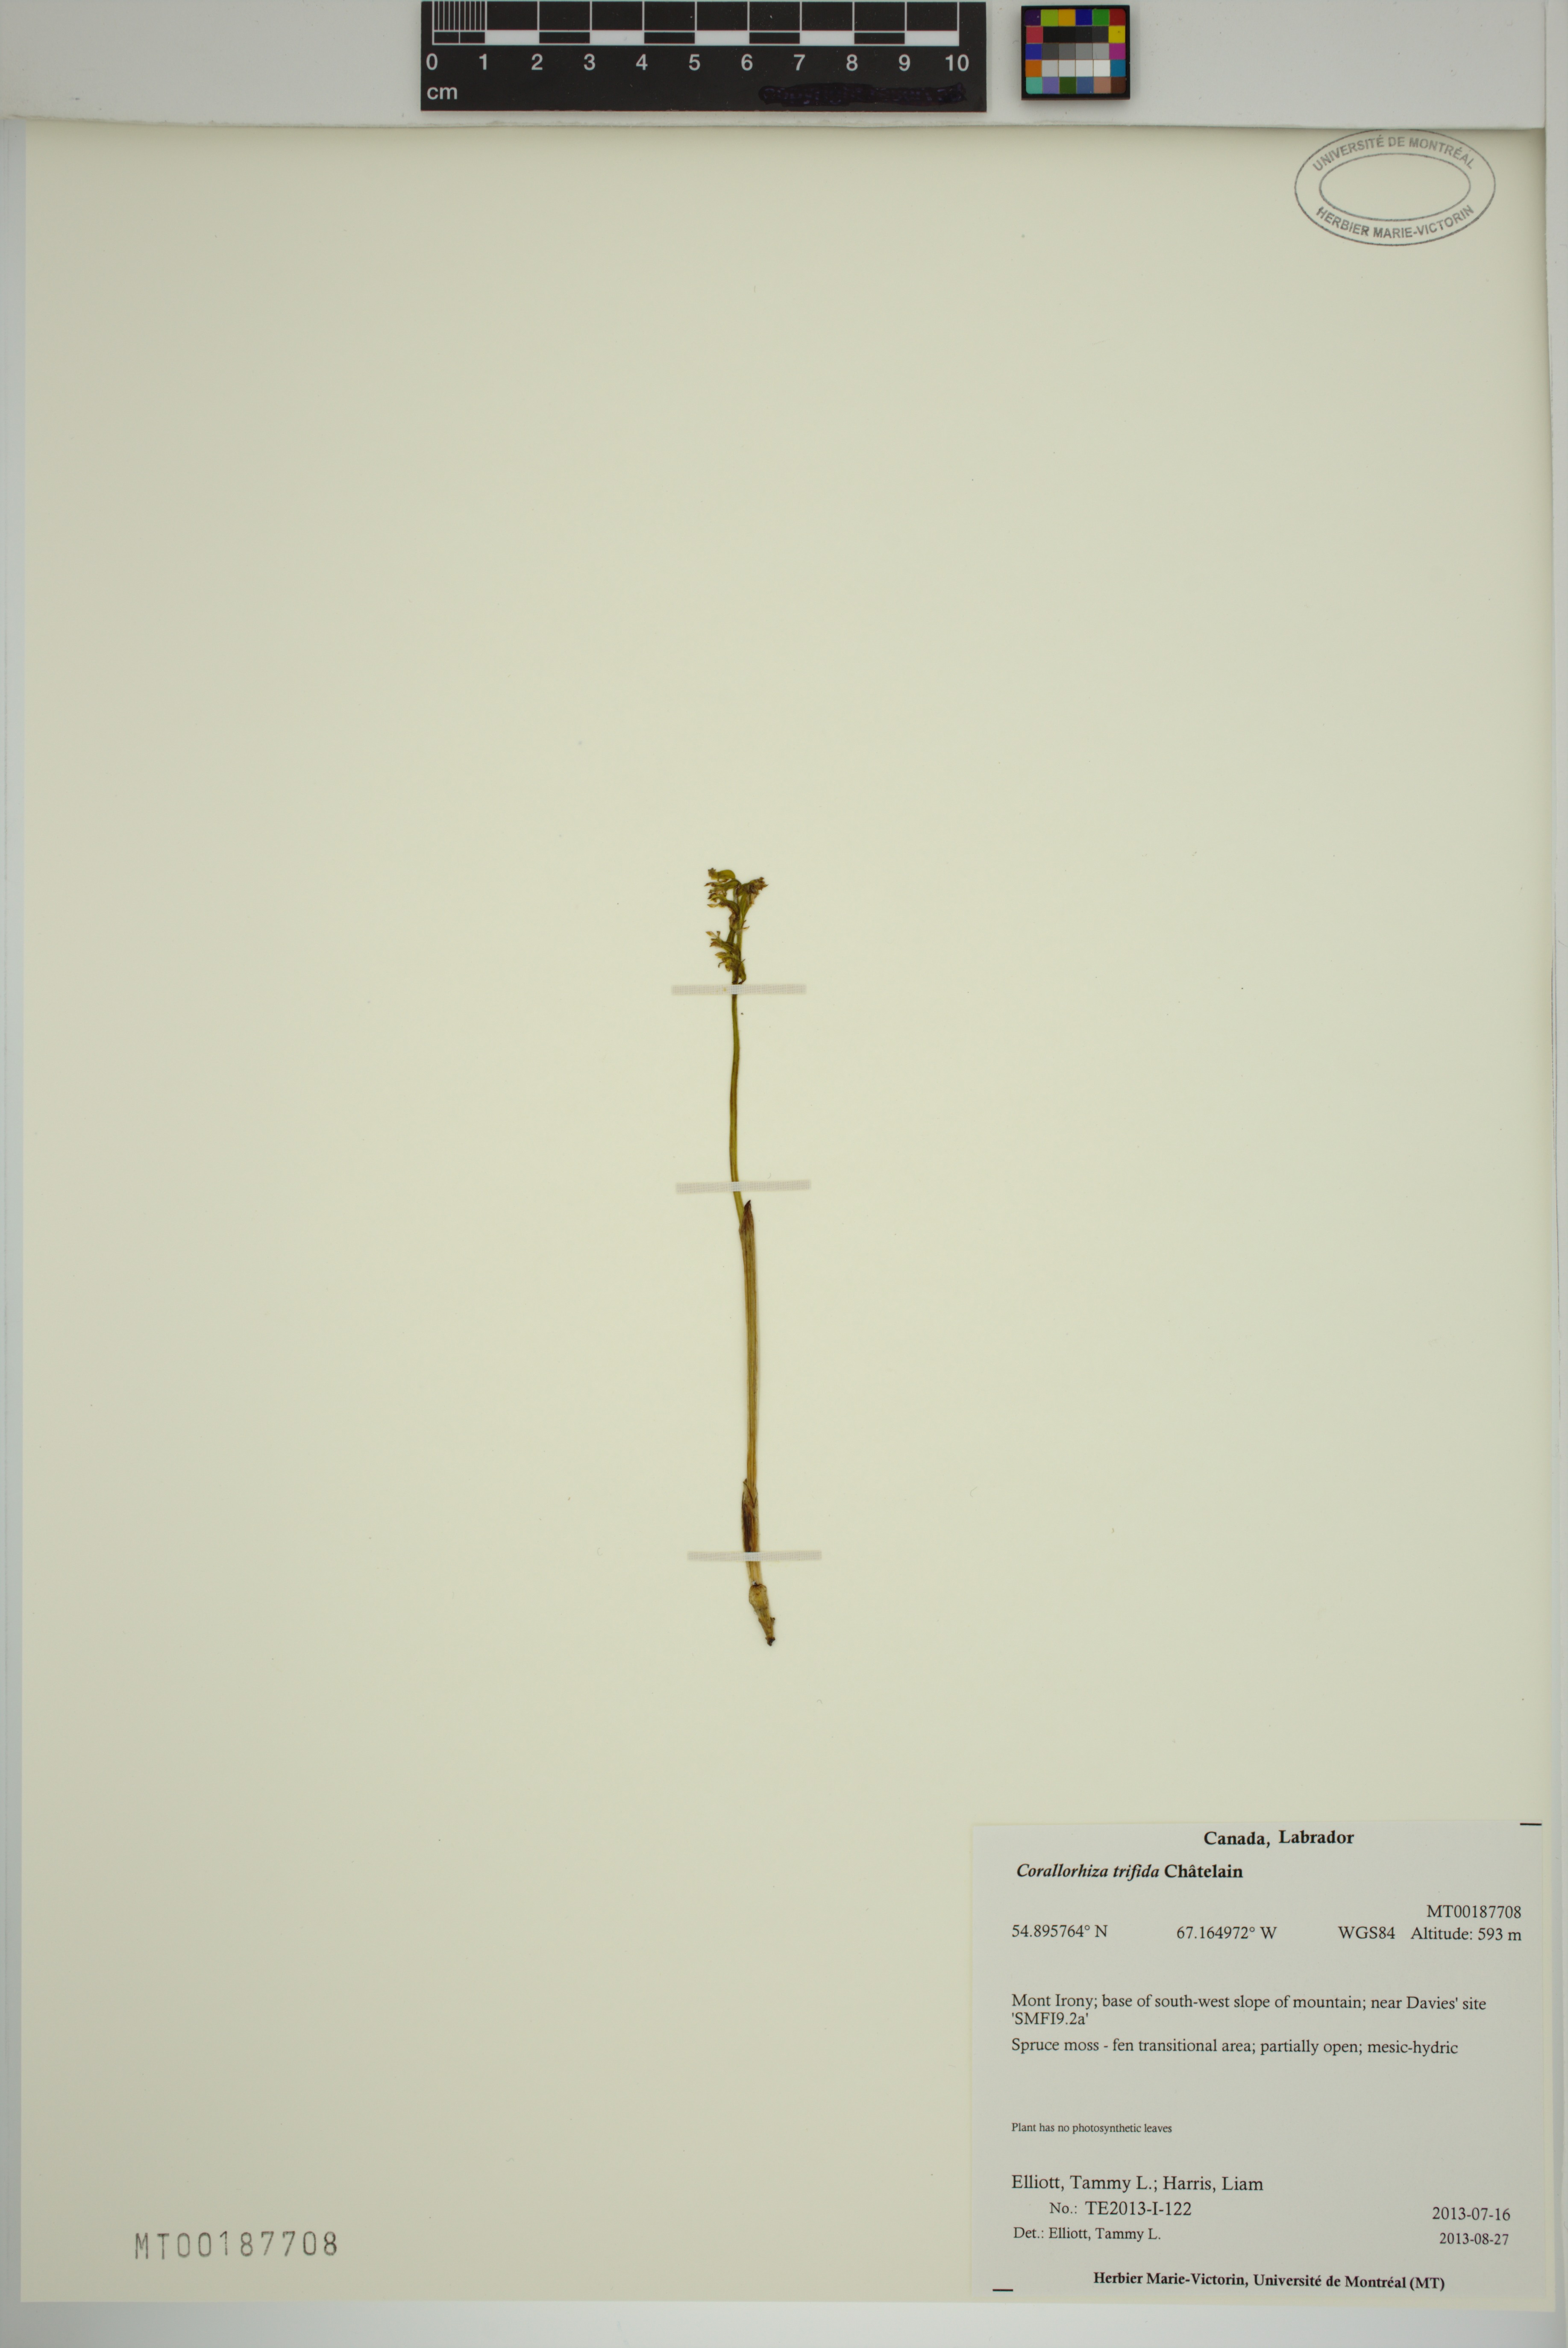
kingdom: Plantae
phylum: Tracheophyta
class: Liliopsida
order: Asparagales
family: Orchidaceae
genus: Corallorhiza
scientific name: Corallorhiza trifida
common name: Yellow coralroot
